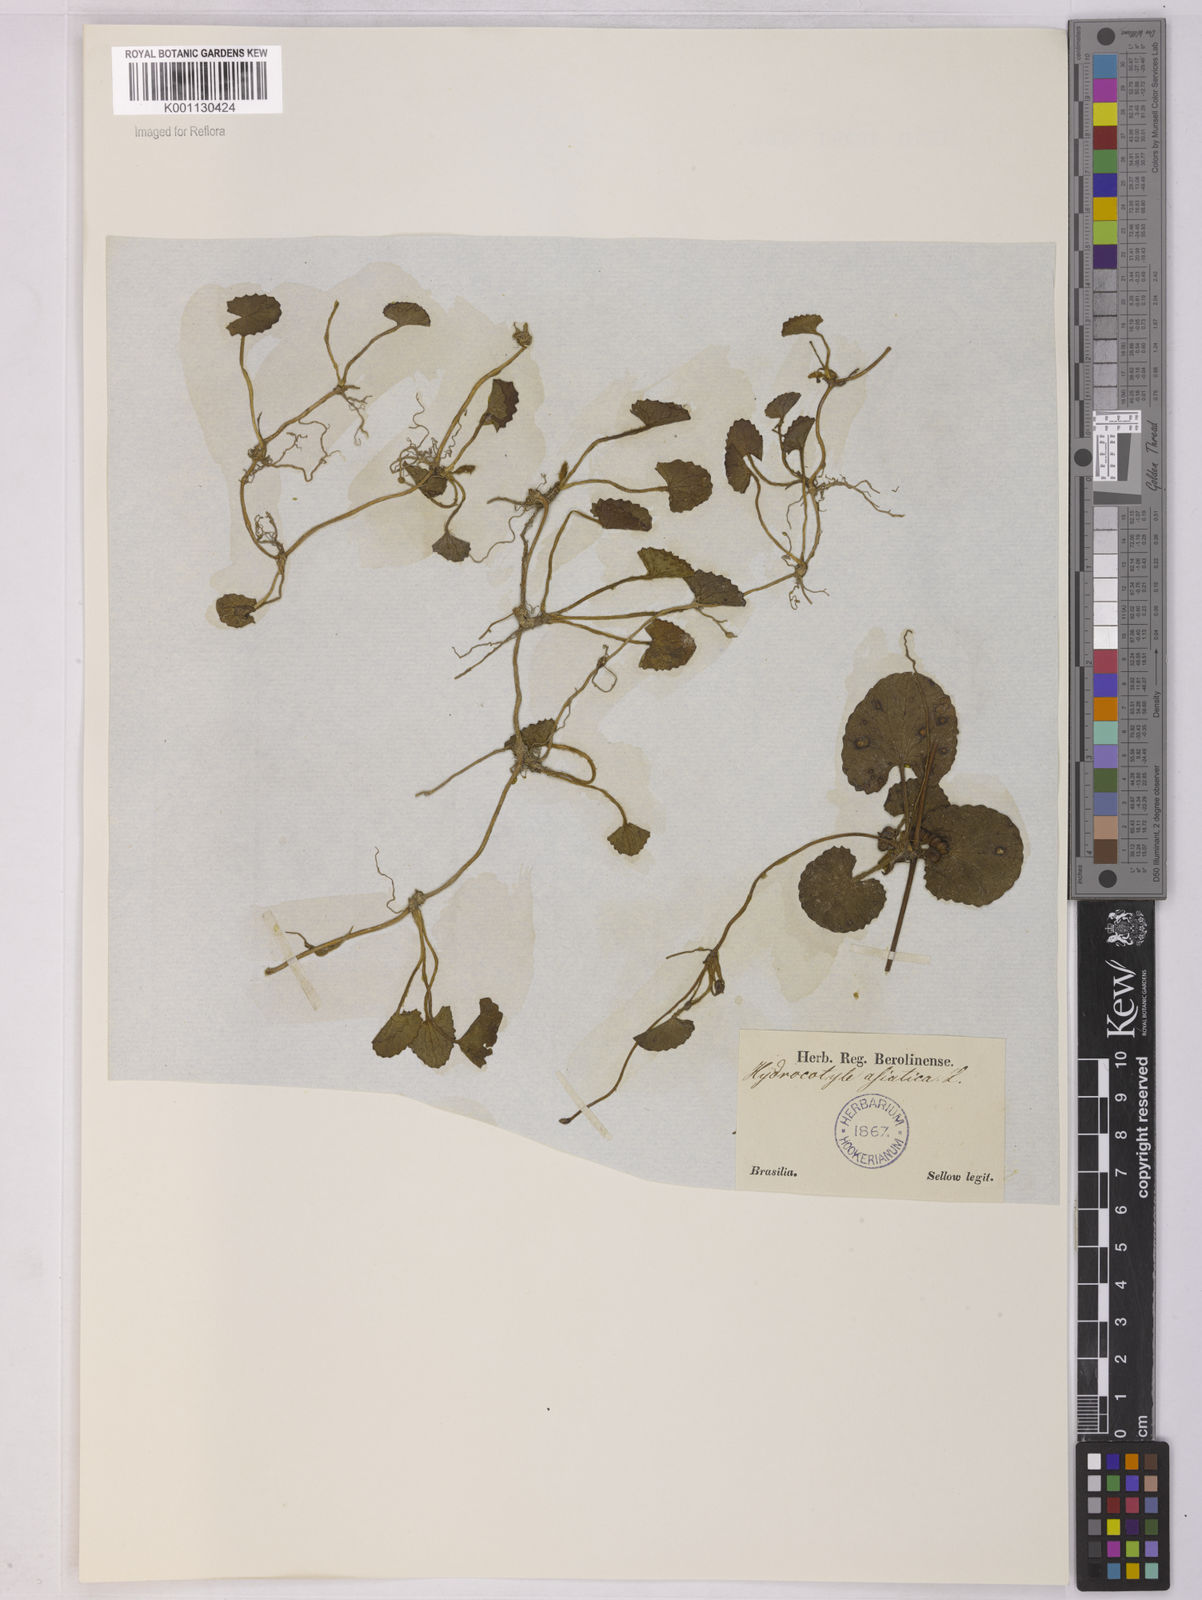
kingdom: Plantae
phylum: Tracheophyta
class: Magnoliopsida
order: Apiales
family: Apiaceae
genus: Centella
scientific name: Centella erecta
